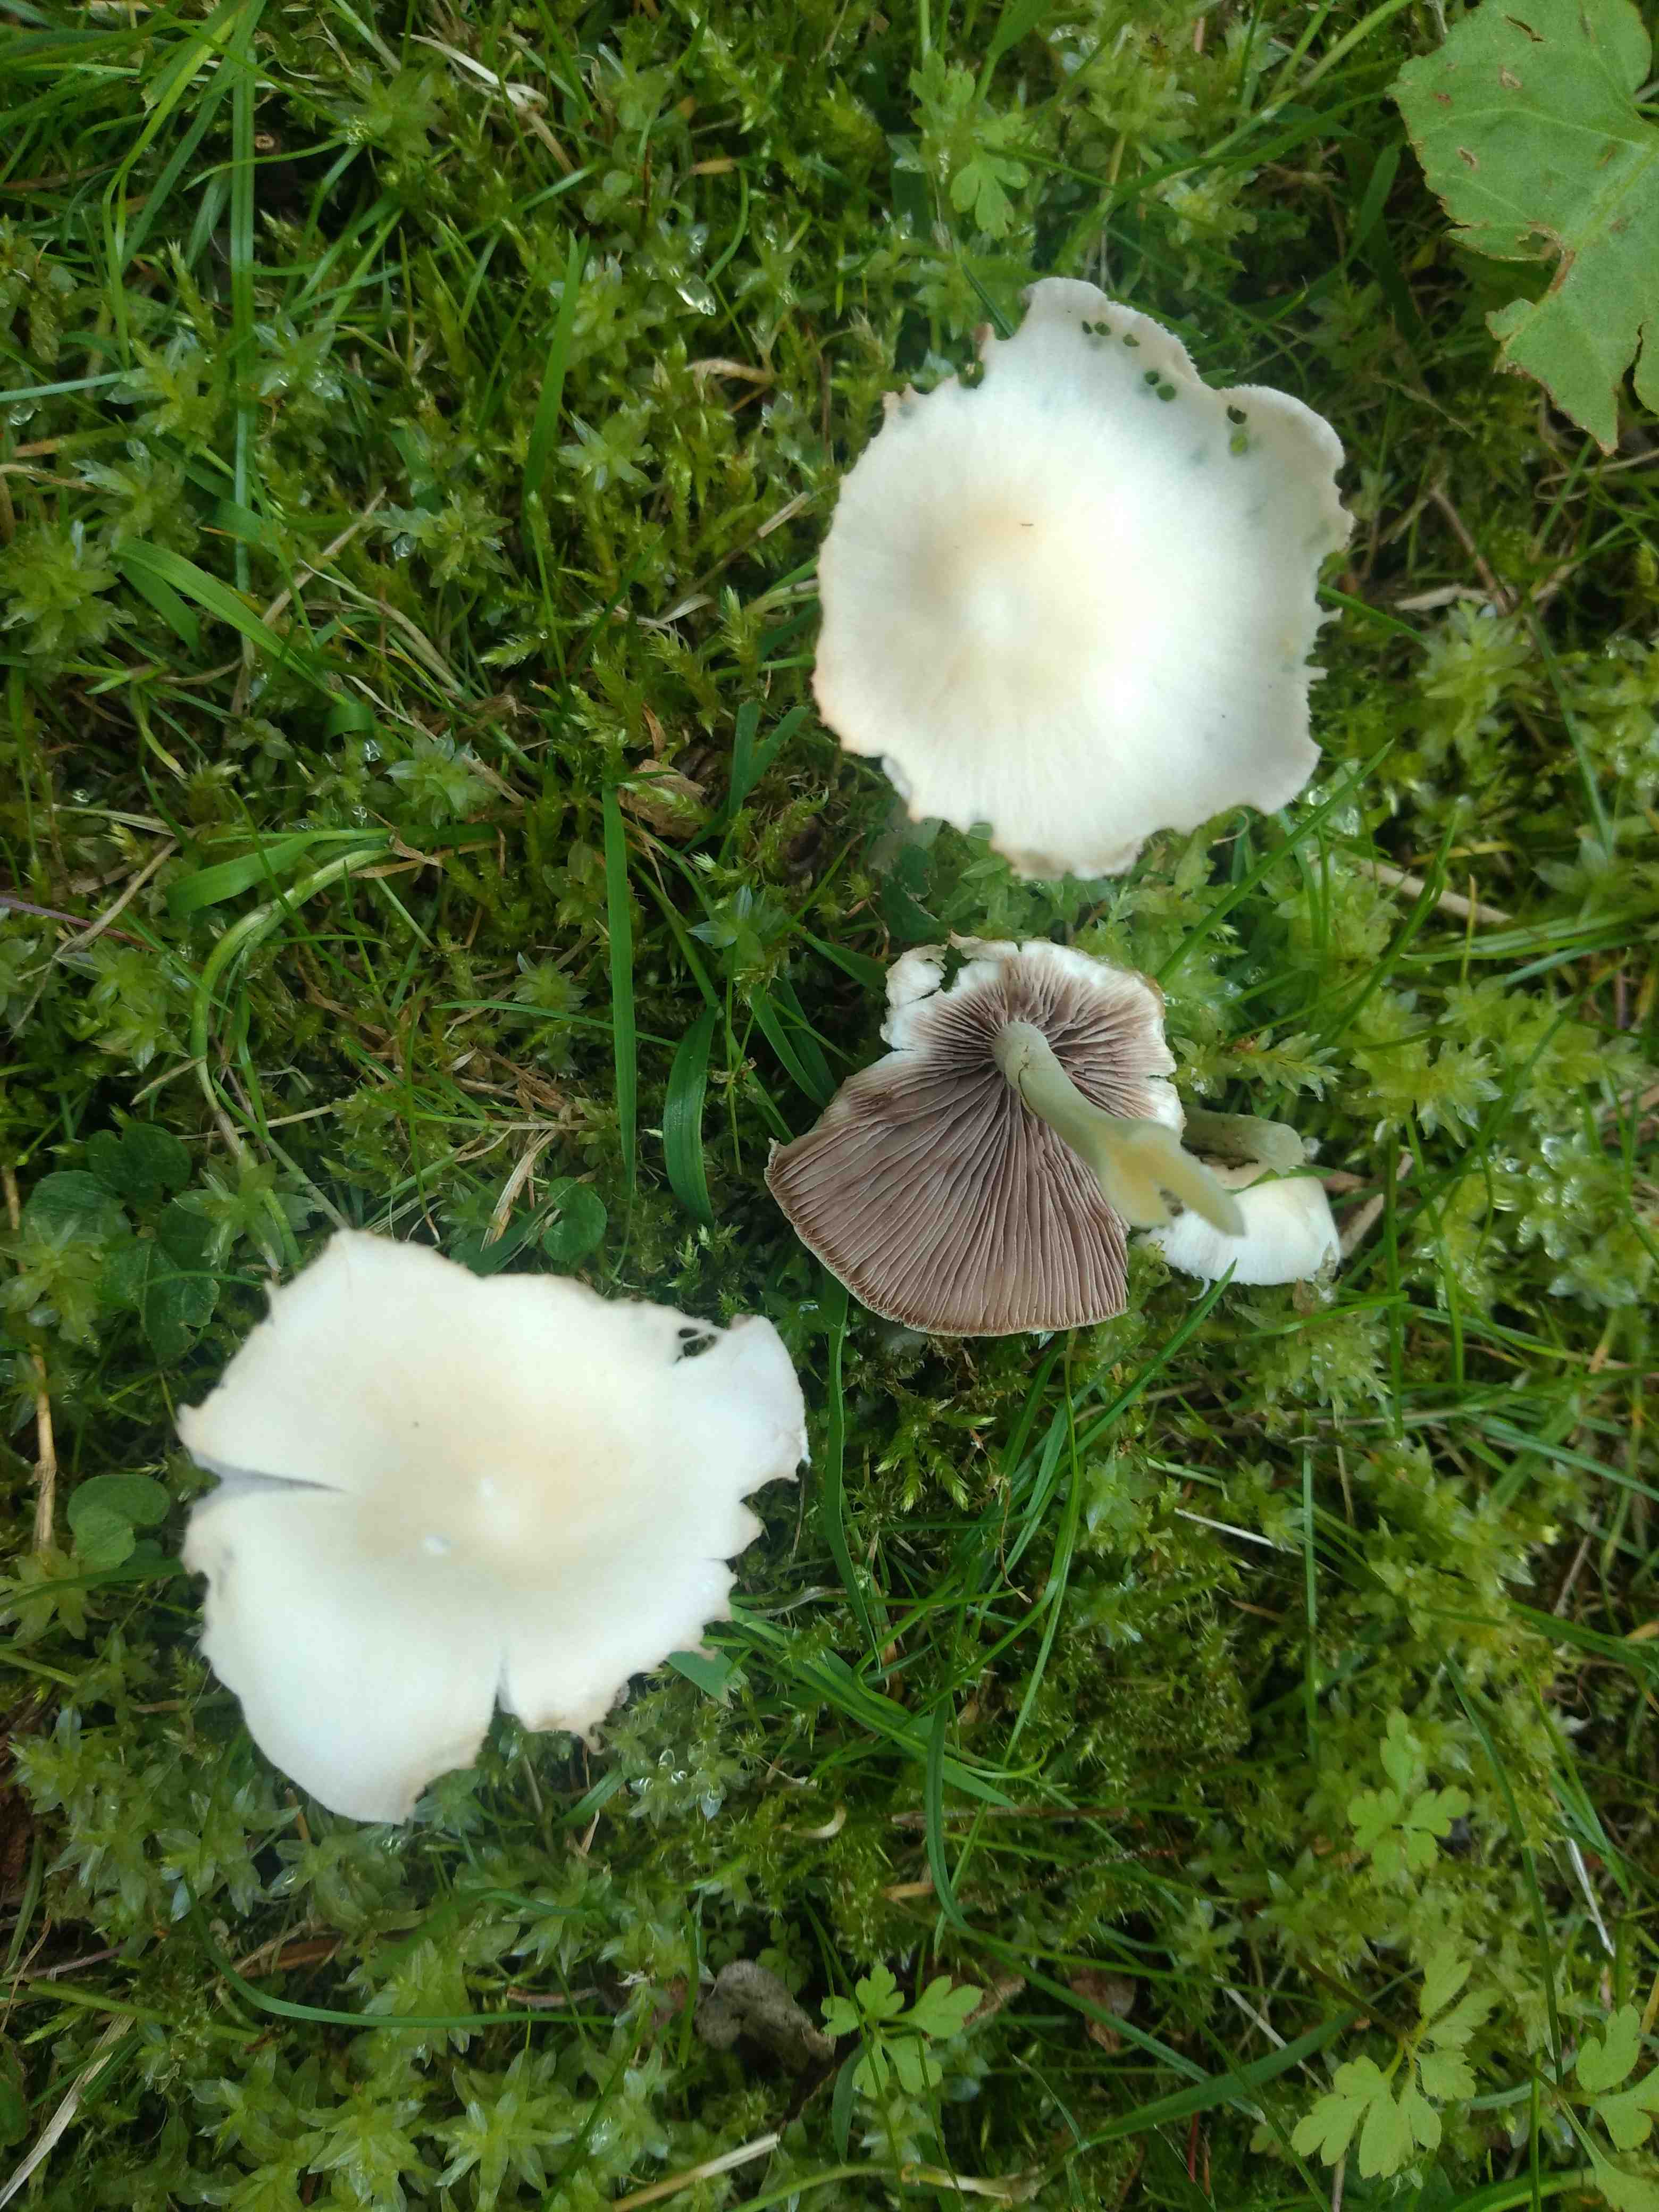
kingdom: Fungi
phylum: Basidiomycota
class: Agaricomycetes
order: Agaricales
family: Psathyrellaceae
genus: Candolleomyces
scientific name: Candolleomyces candolleanus
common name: Candolles mørkhat
